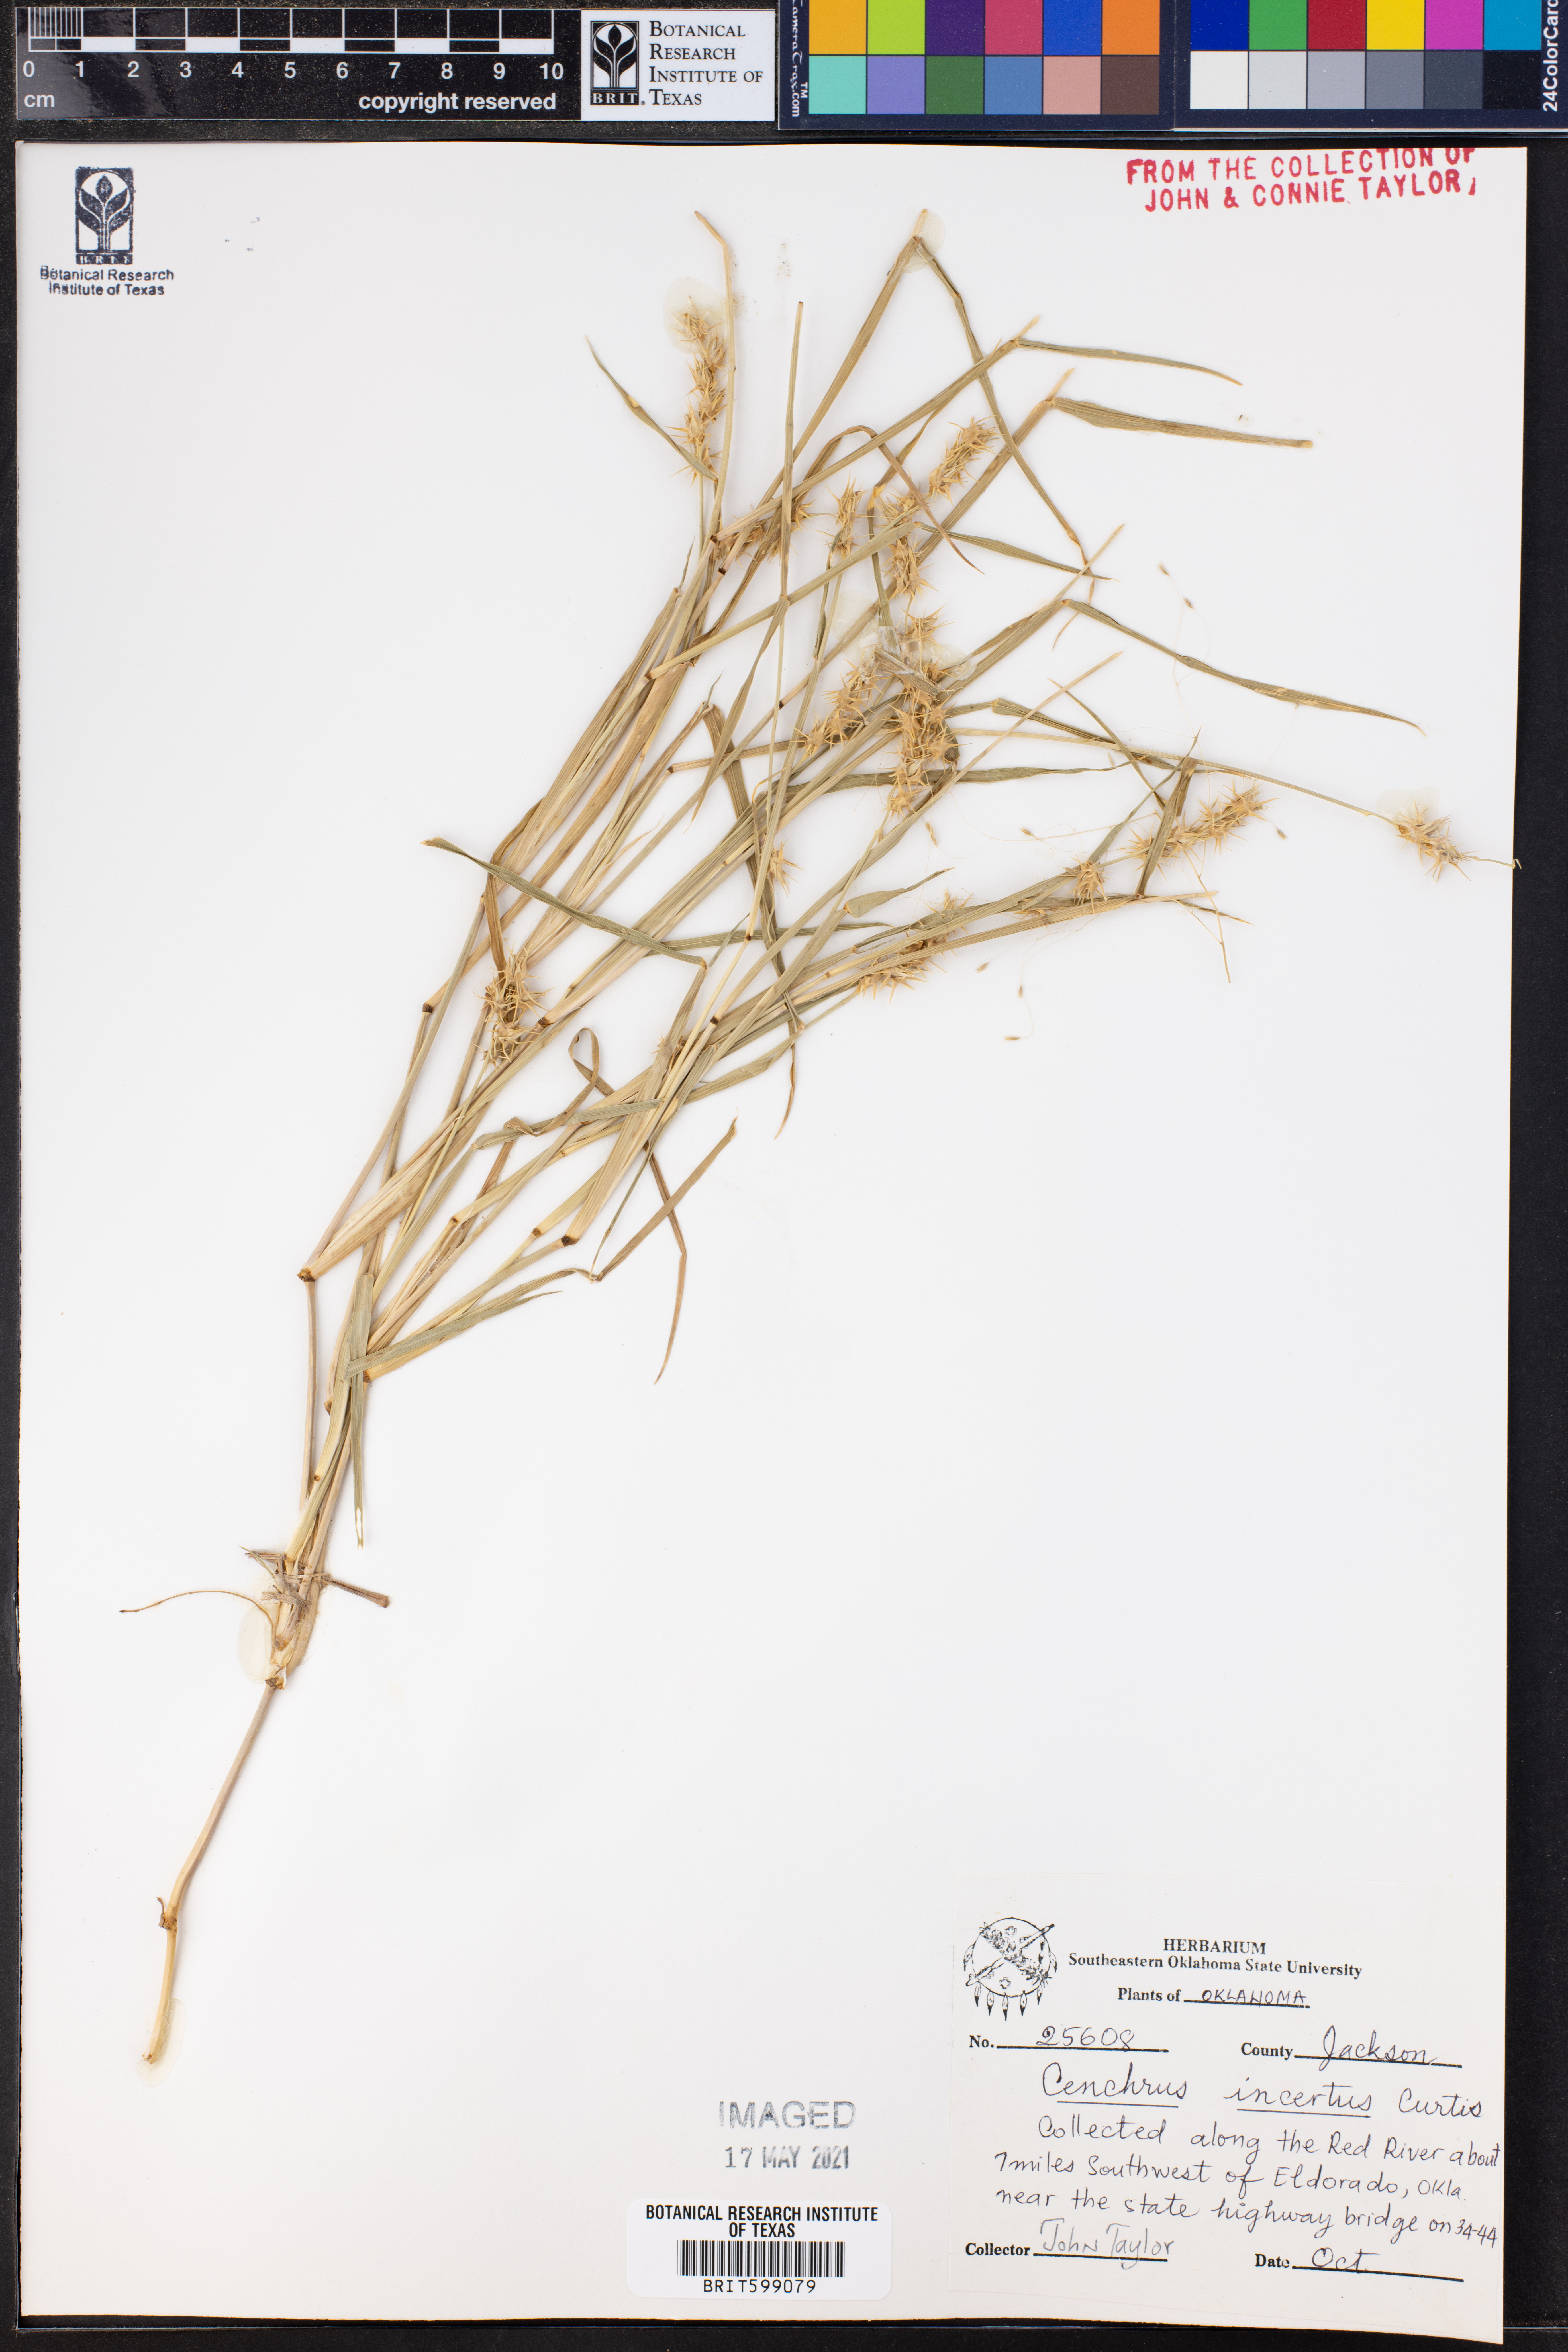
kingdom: Plantae
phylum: Tracheophyta
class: Liliopsida
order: Poales
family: Poaceae
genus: Cenchrus
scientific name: Cenchrus spinifex
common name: Coast sandbur
